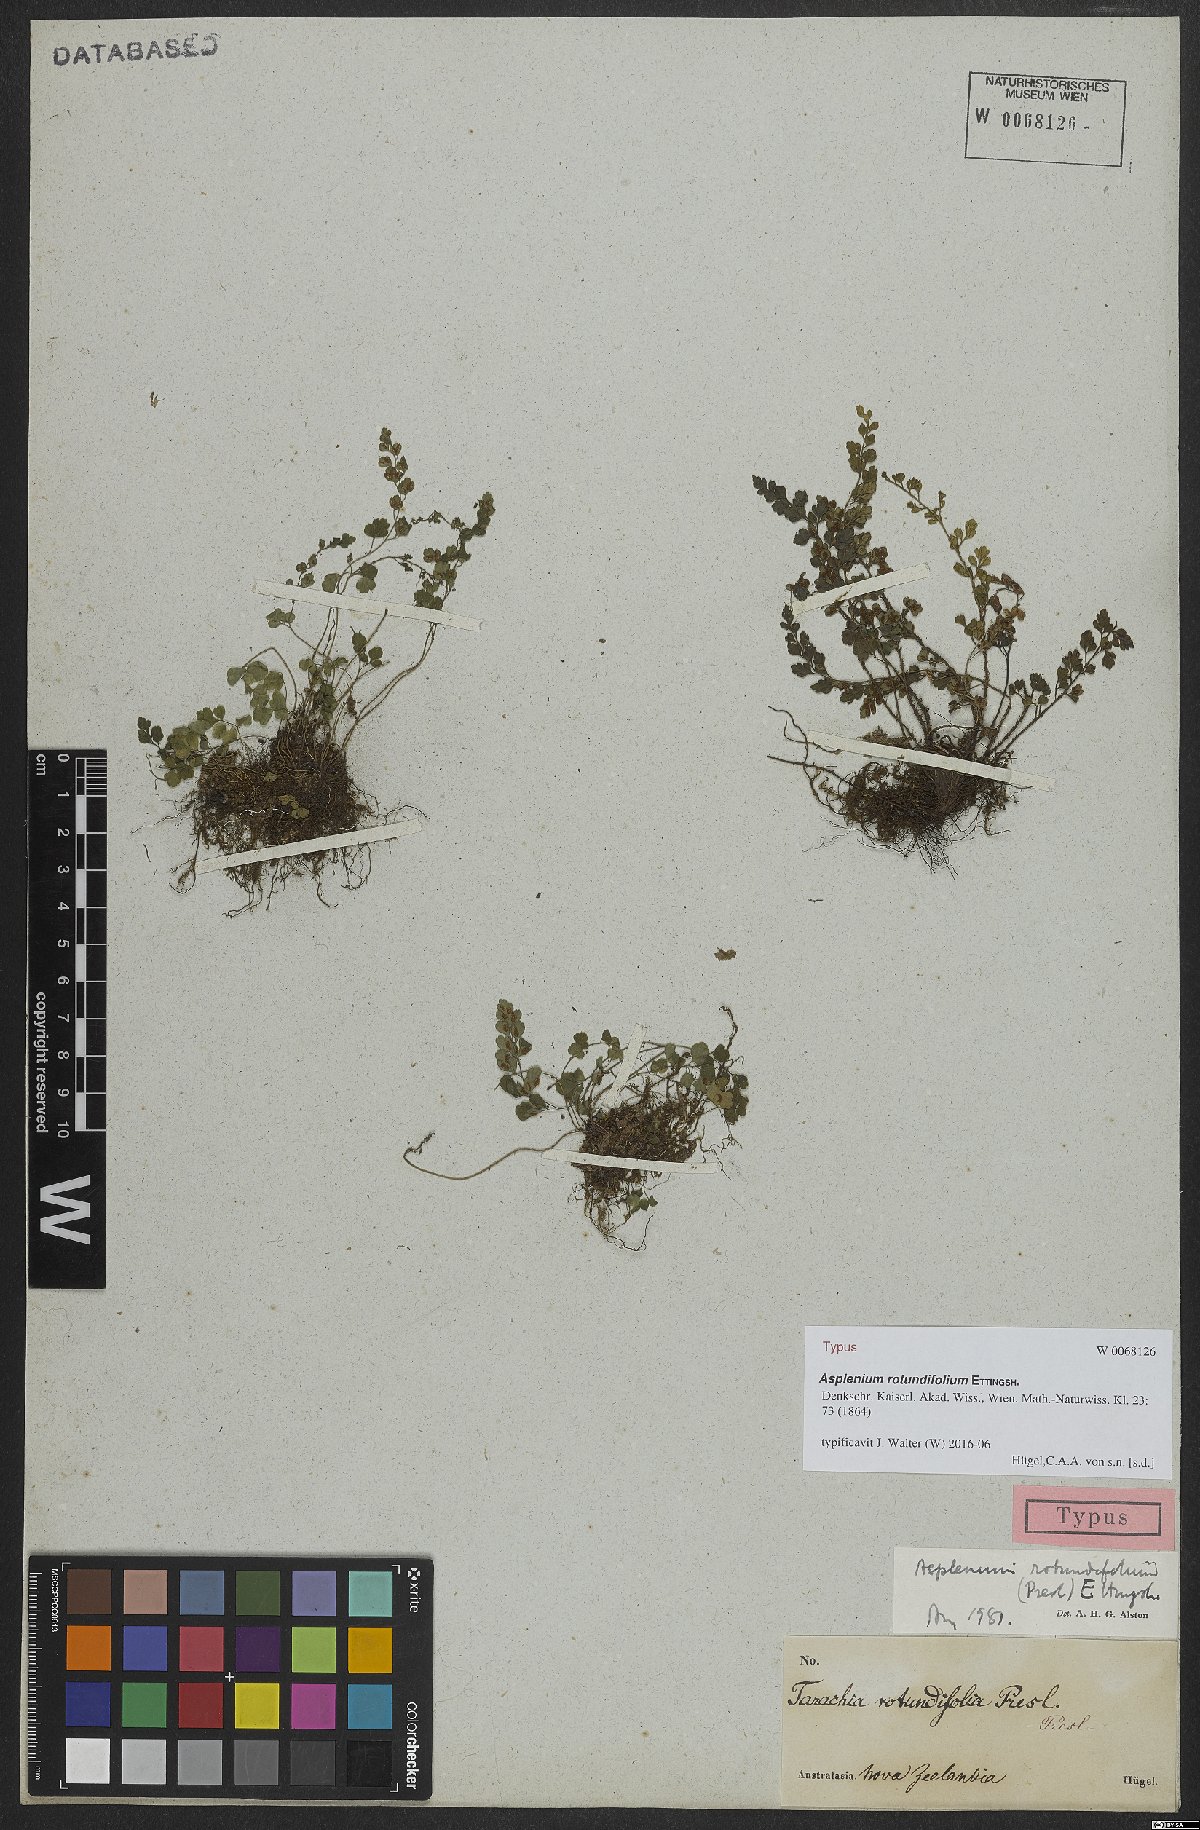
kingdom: Plantae
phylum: Tracheophyta
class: Polypodiopsida
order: Polypodiales
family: Aspleniaceae
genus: Asplenium
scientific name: Asplenium hookerianum
